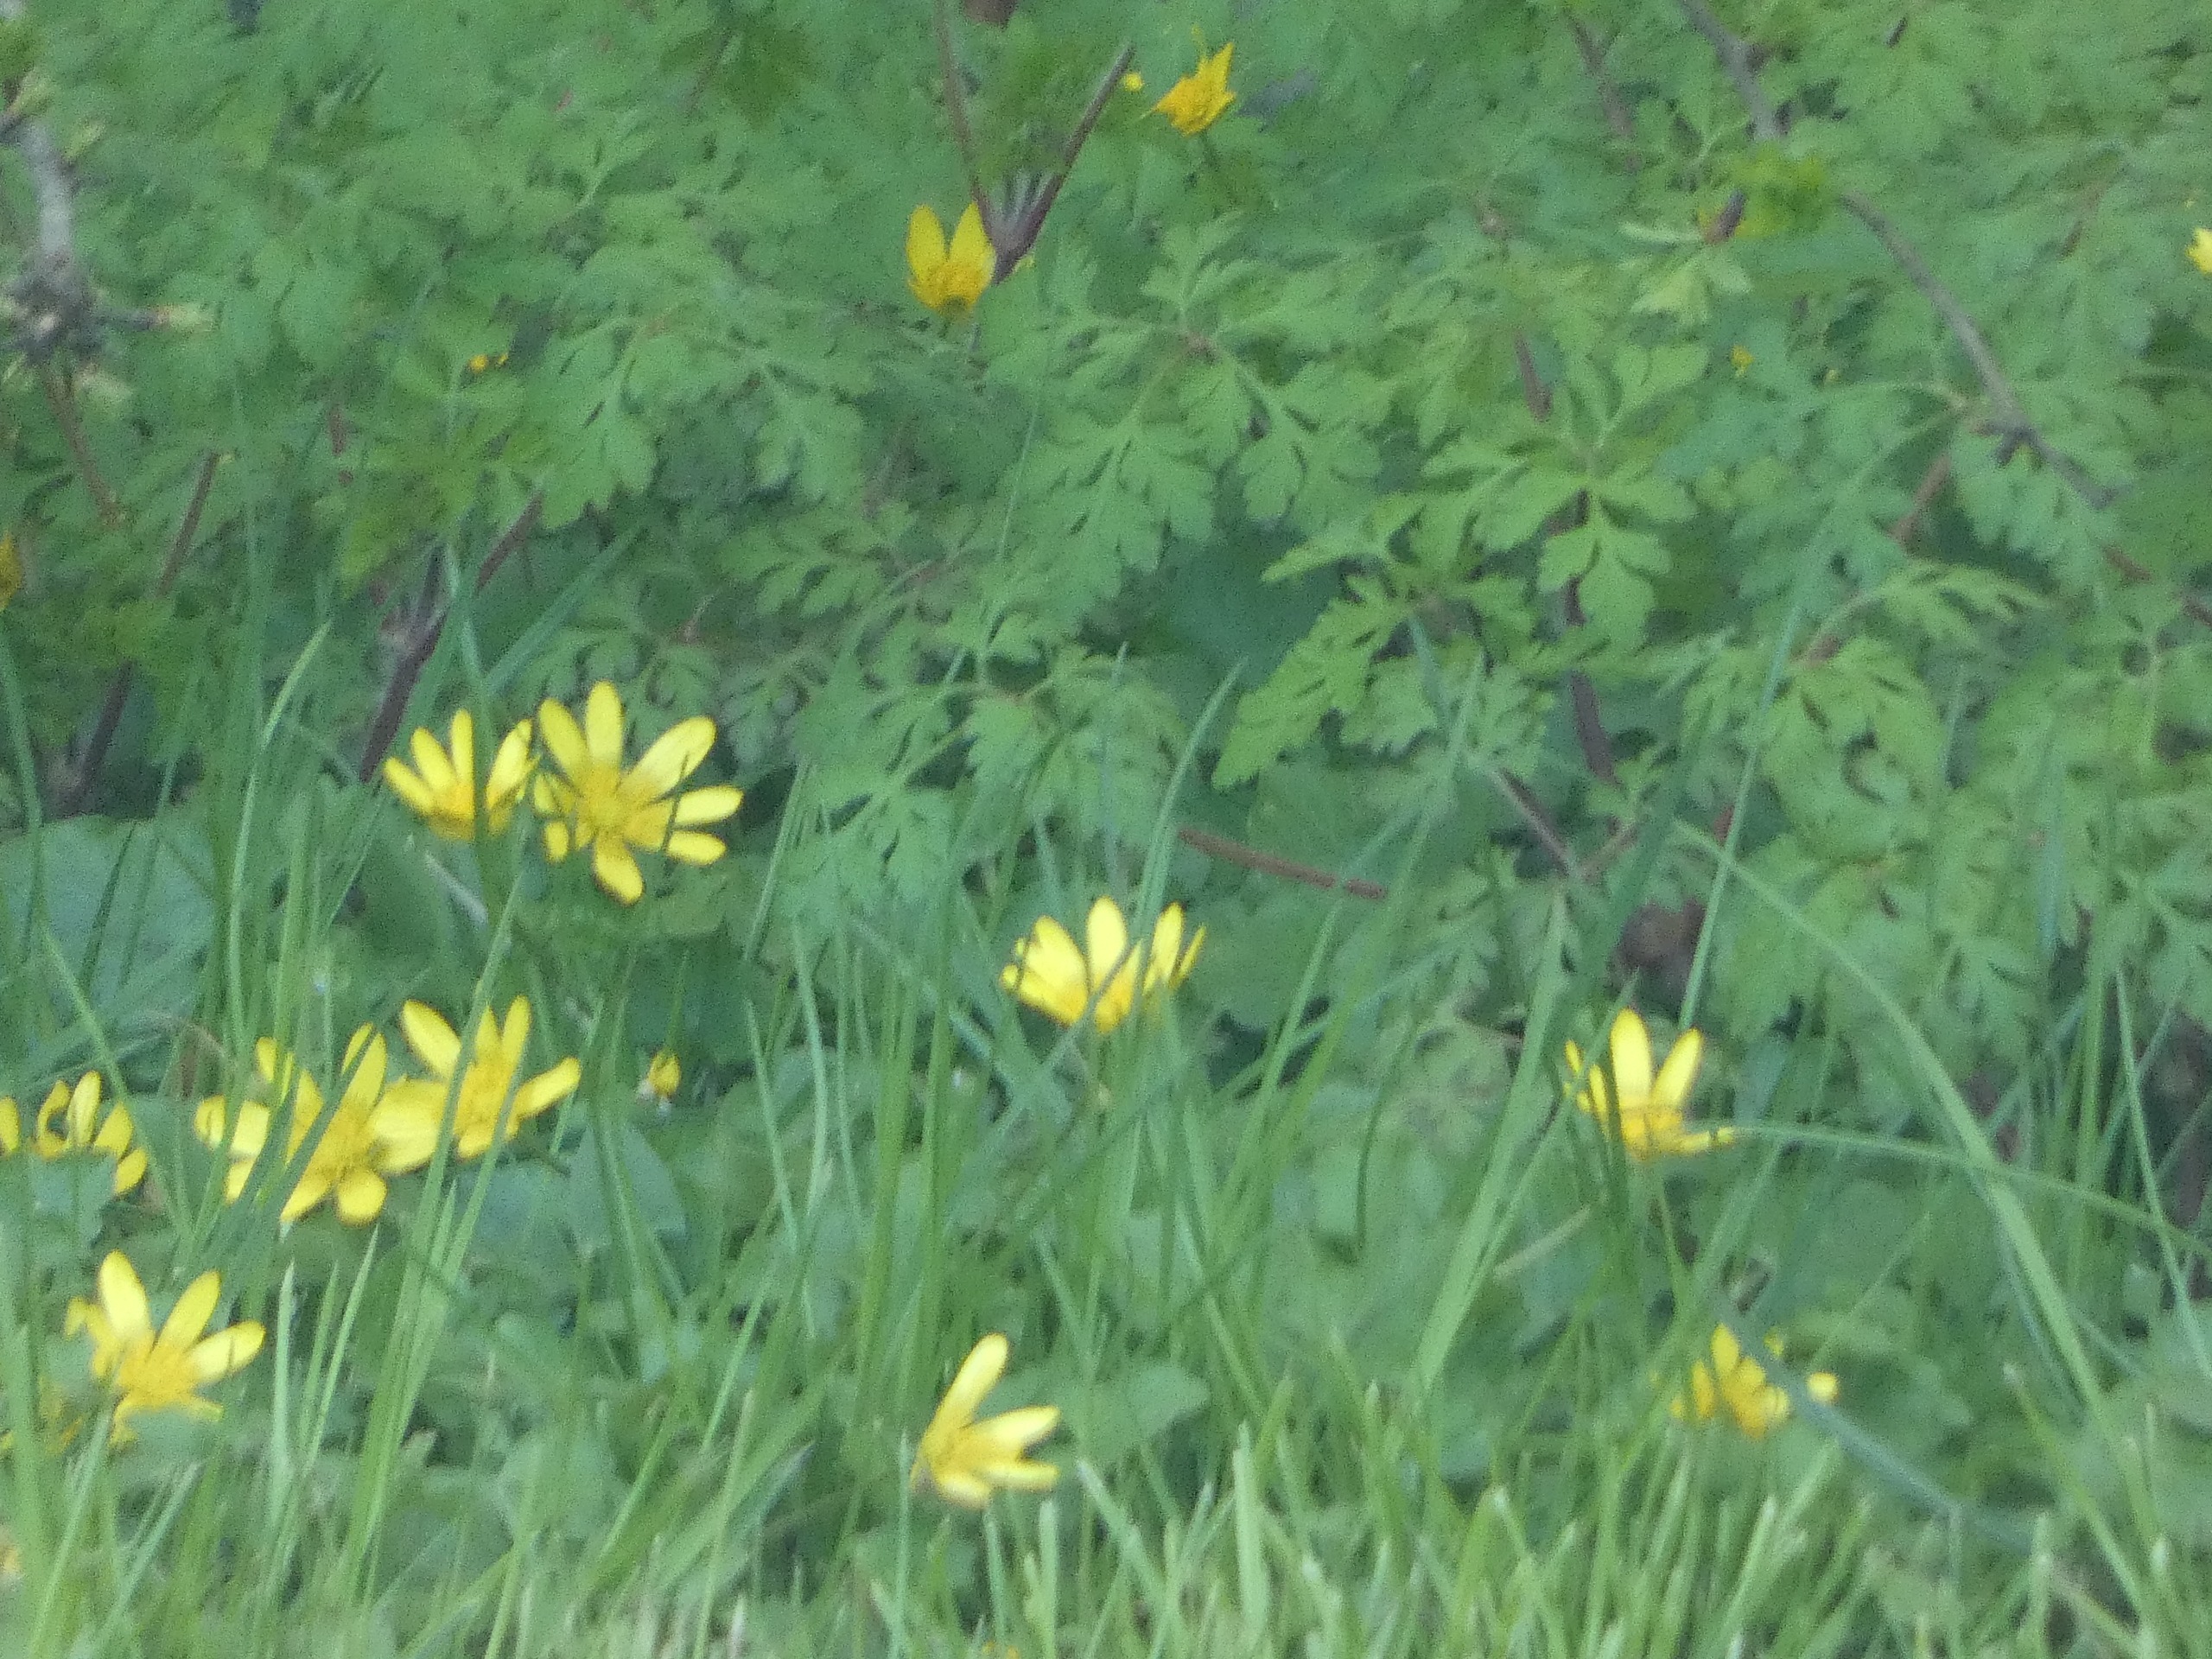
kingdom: Plantae
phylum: Tracheophyta
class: Magnoliopsida
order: Ranunculales
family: Ranunculaceae
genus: Ficaria
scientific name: Ficaria verna
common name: Vorterod
